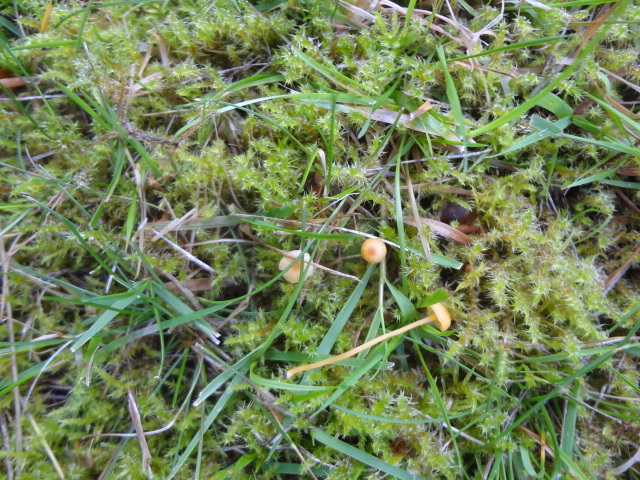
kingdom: Fungi
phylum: Basidiomycota
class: Agaricomycetes
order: Hymenochaetales
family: Rickenellaceae
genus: Rickenella
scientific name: Rickenella fibula
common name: orange mosnavlehat
